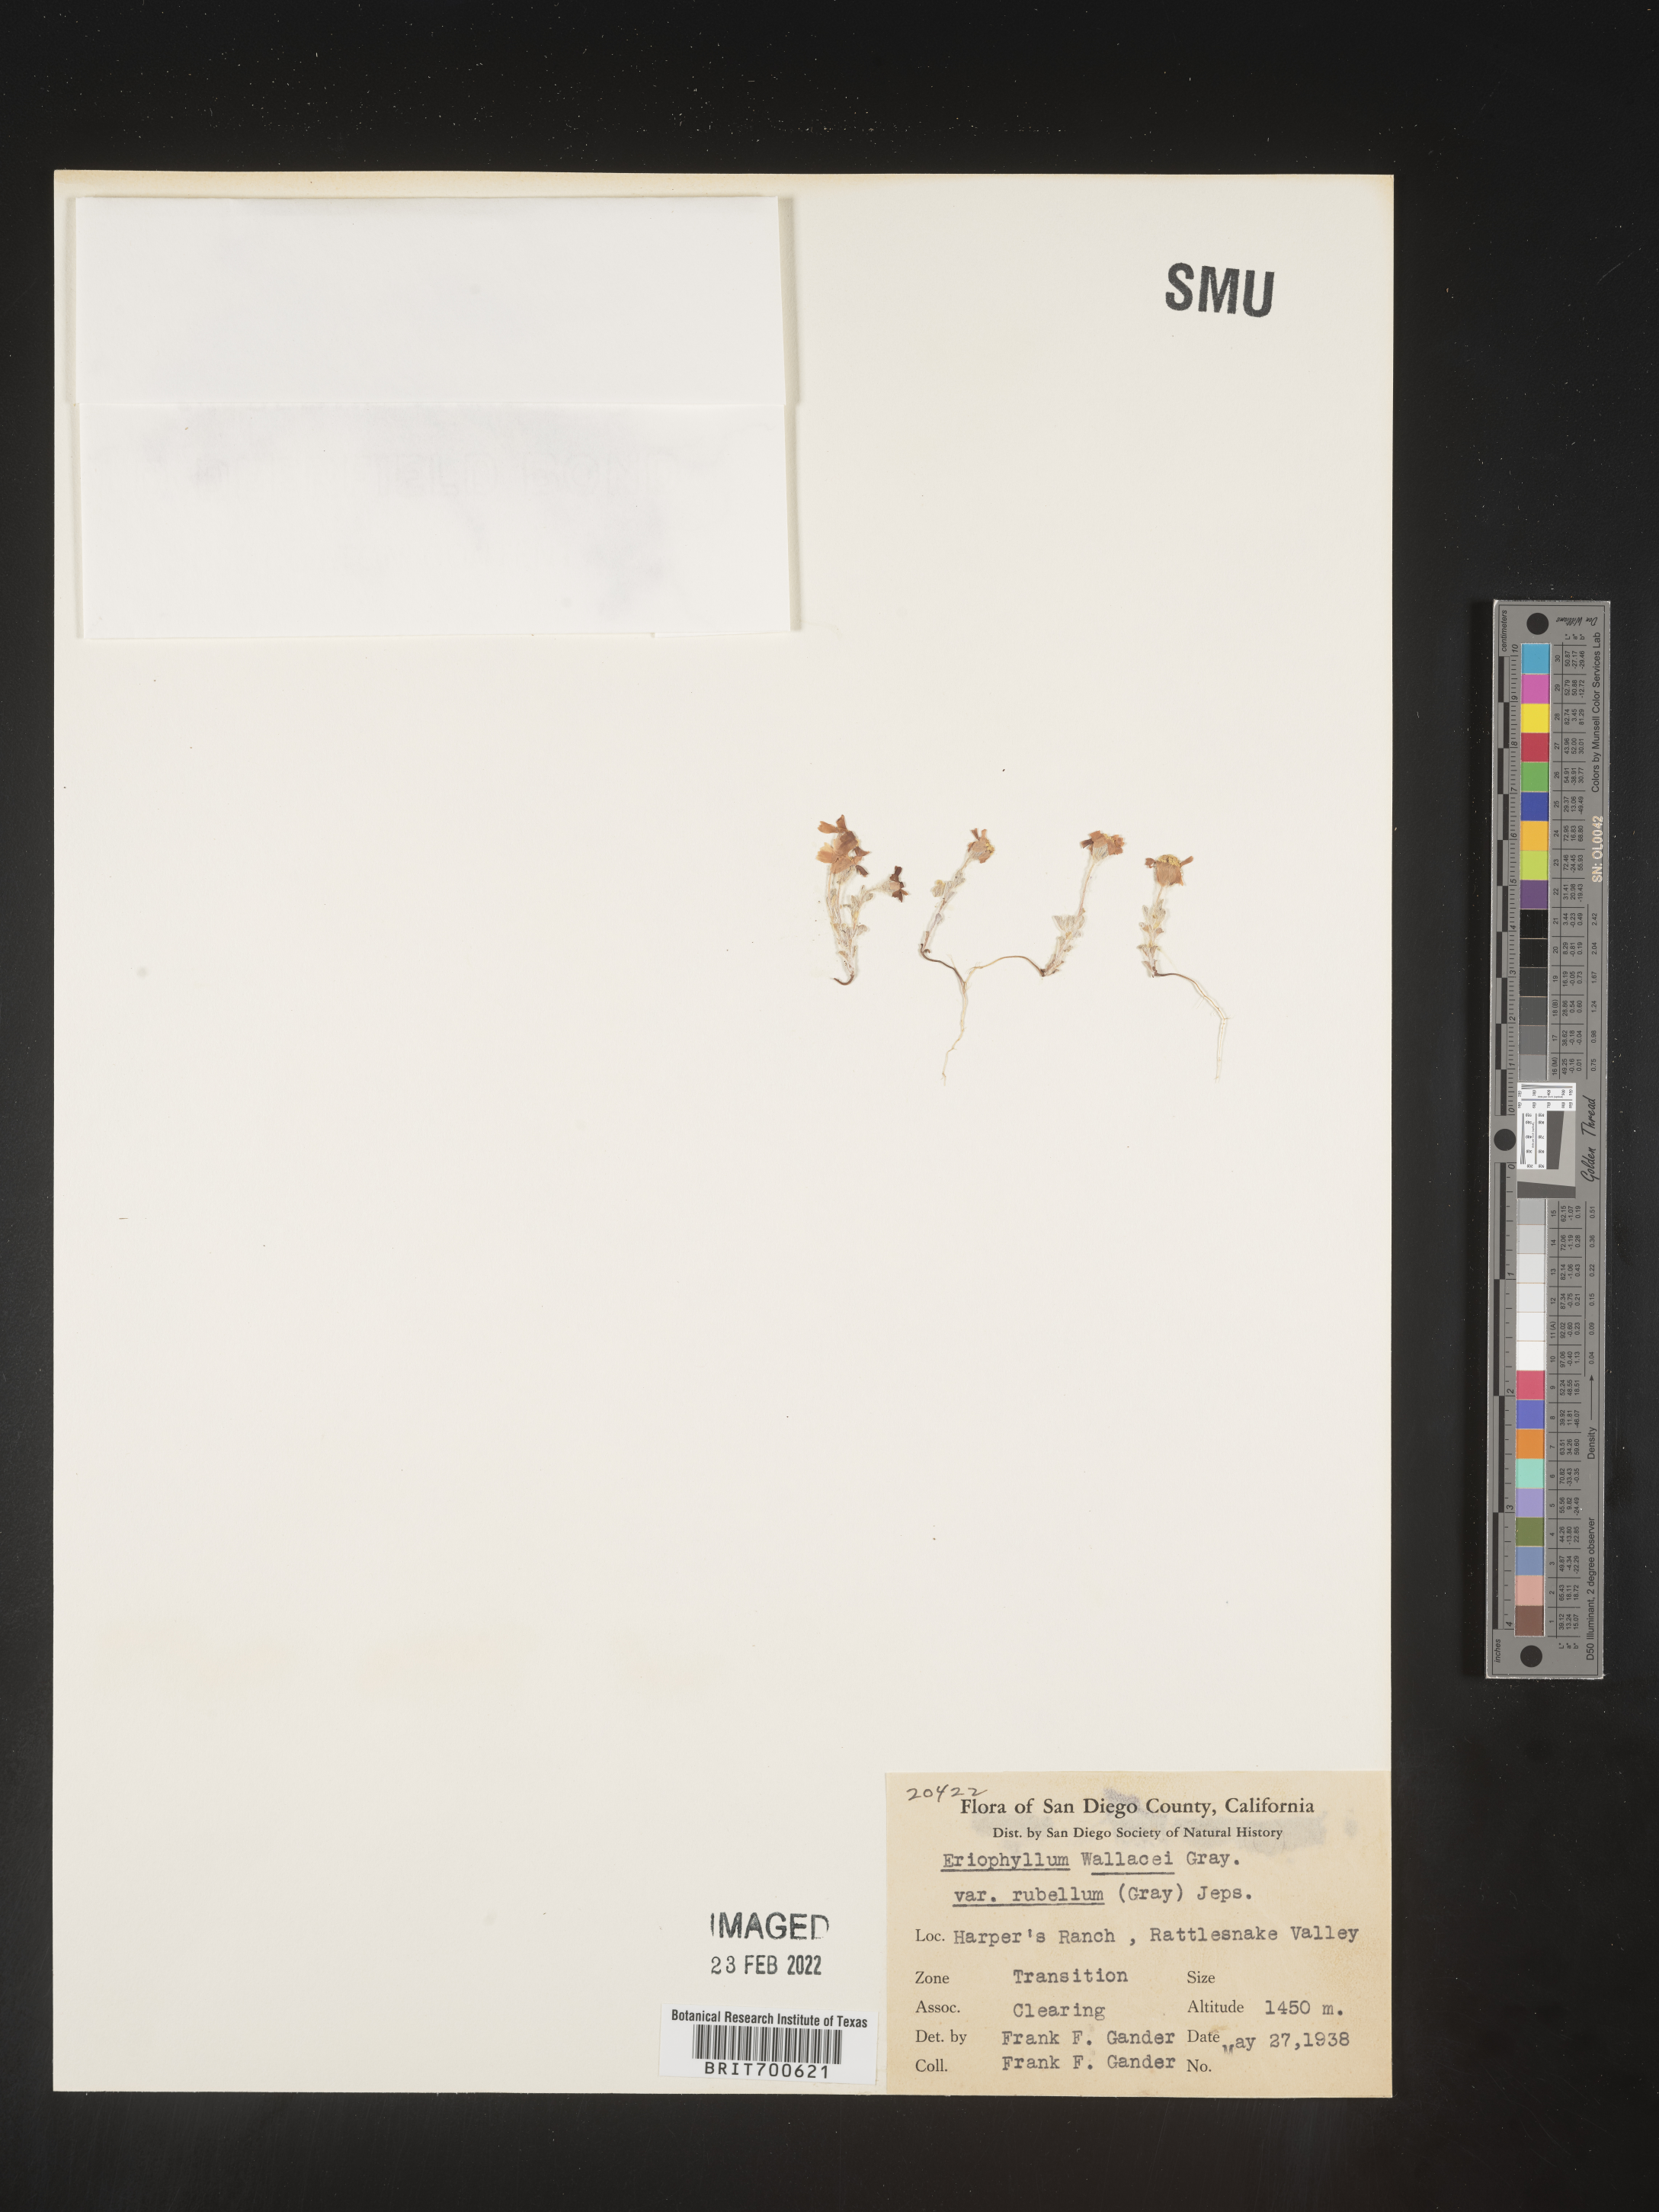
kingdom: Plantae
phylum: Tracheophyta
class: Magnoliopsida
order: Asterales
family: Asteraceae
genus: Eriophyllum
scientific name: Eriophyllum wallacei
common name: Wallace's woolly daisy
